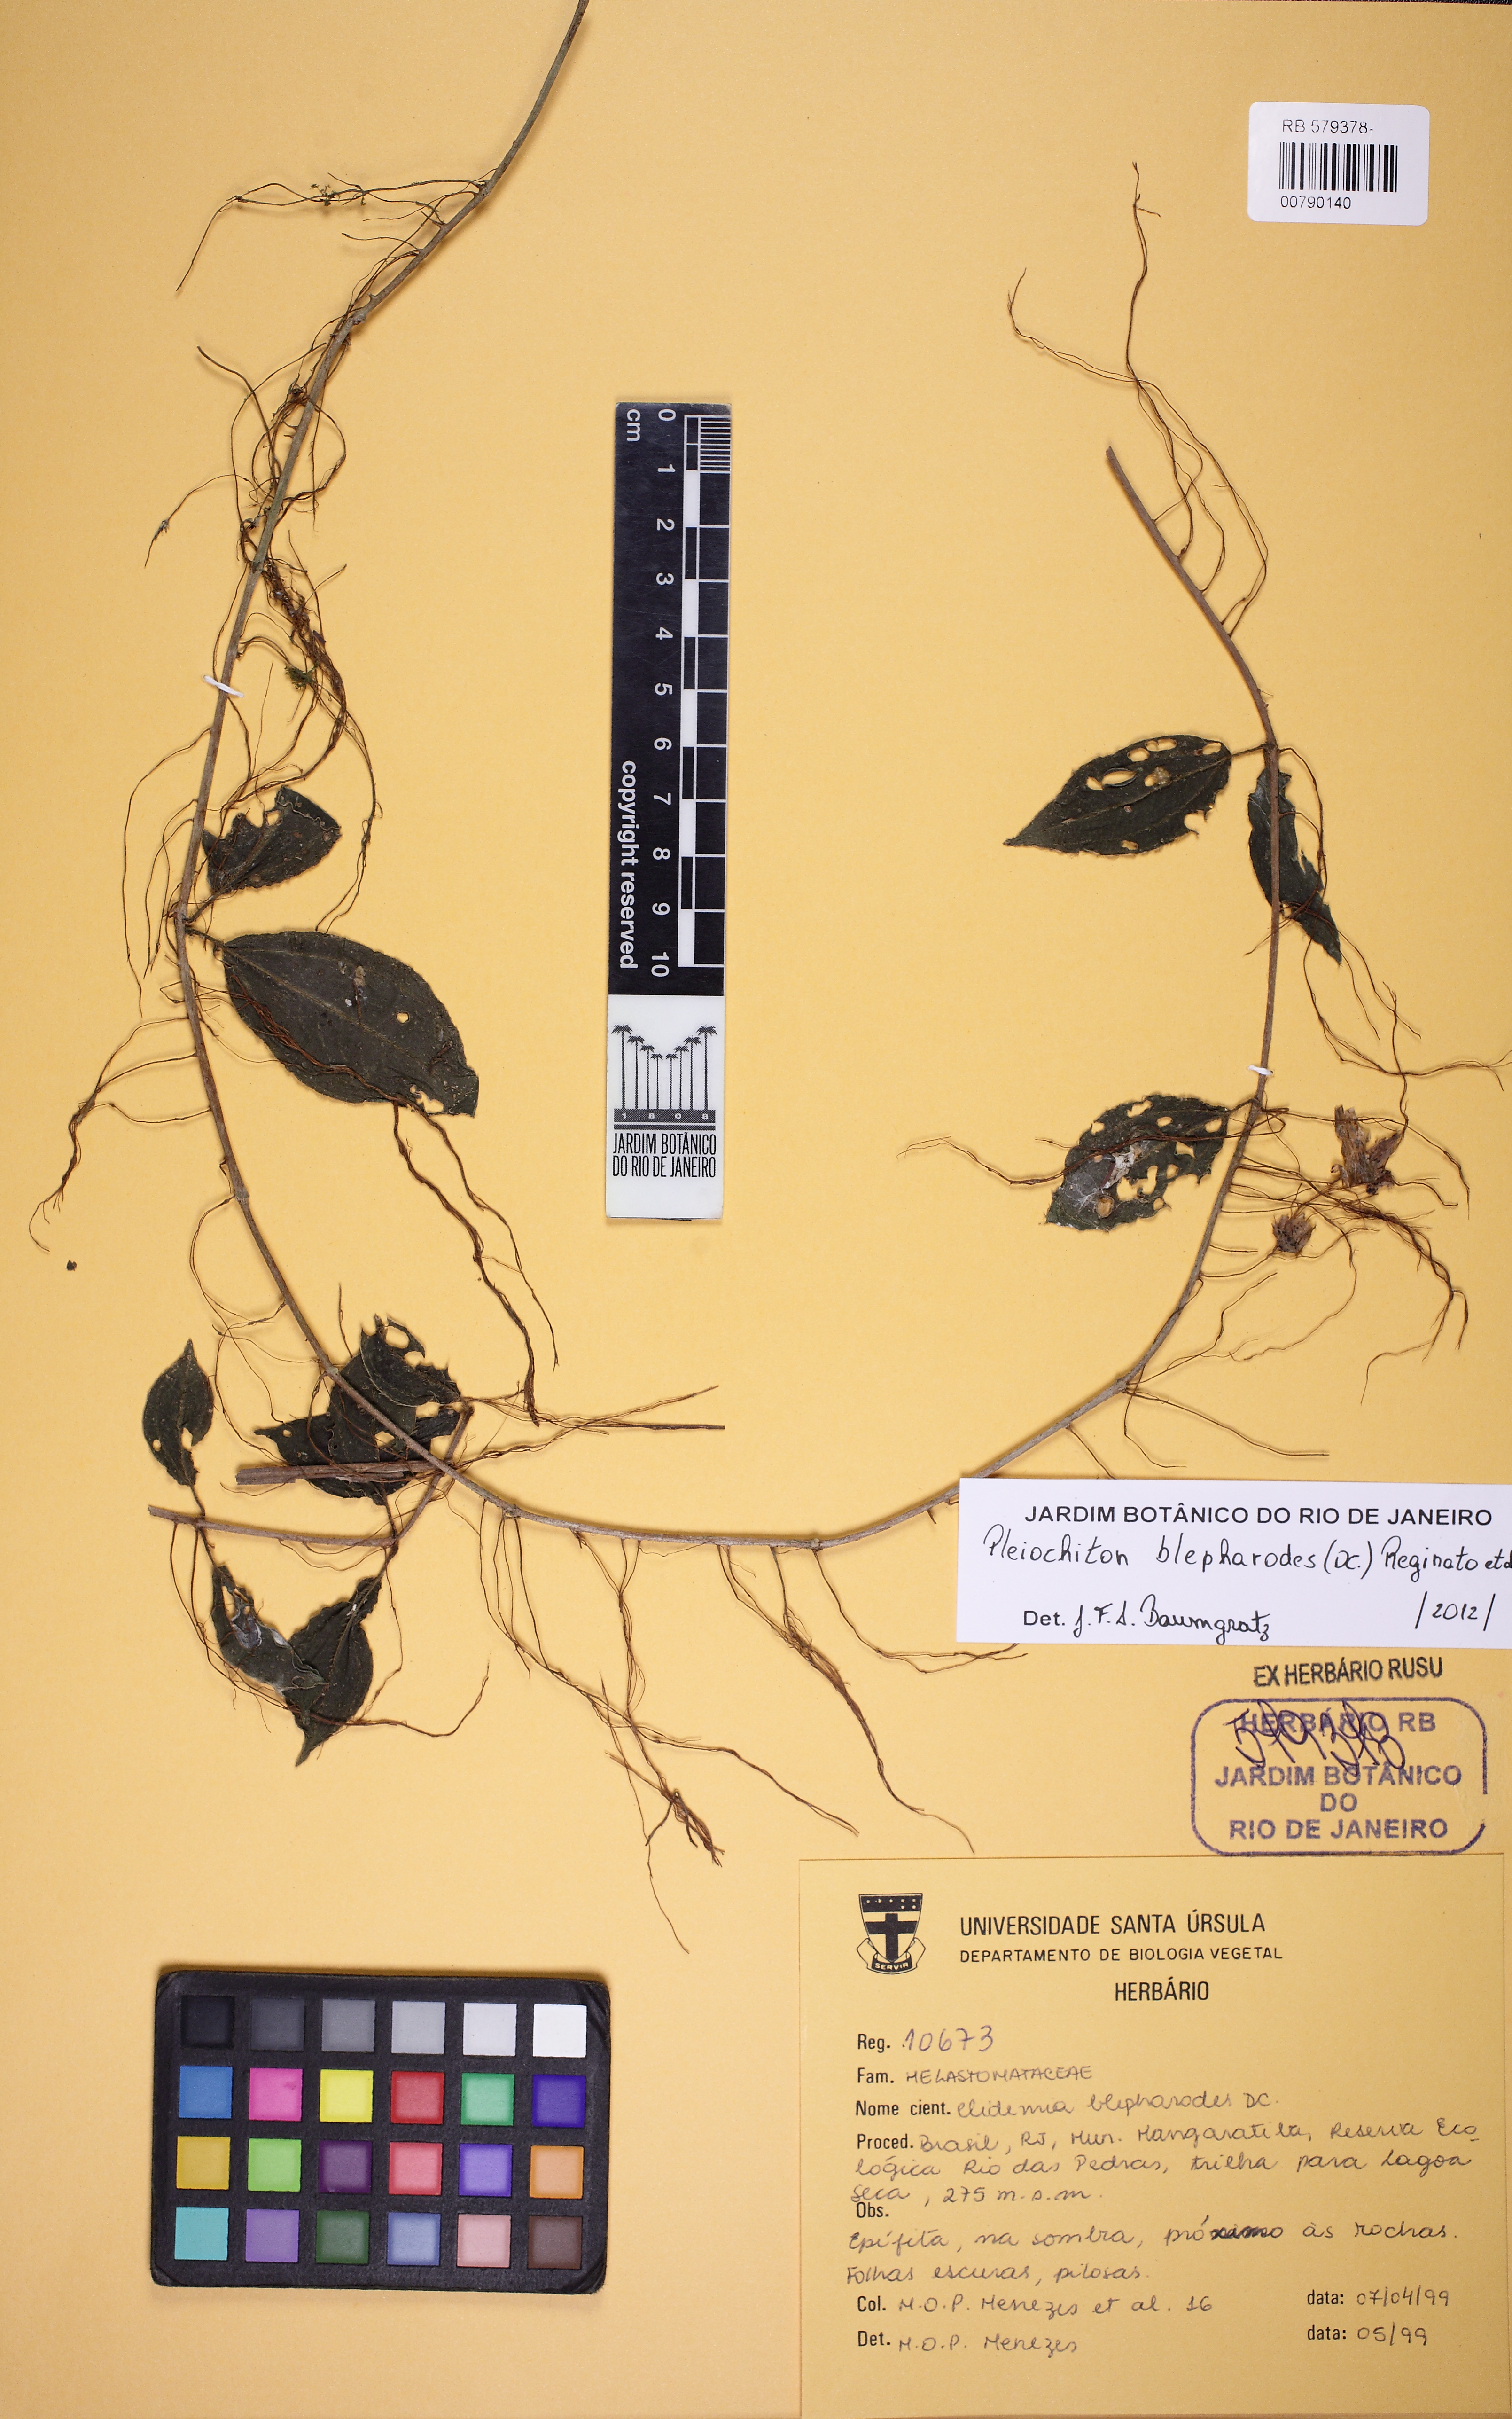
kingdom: Plantae
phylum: Tracheophyta
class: Magnoliopsida
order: Myrtales
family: Melastomataceae
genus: Miconia
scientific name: Miconia blepharodes
